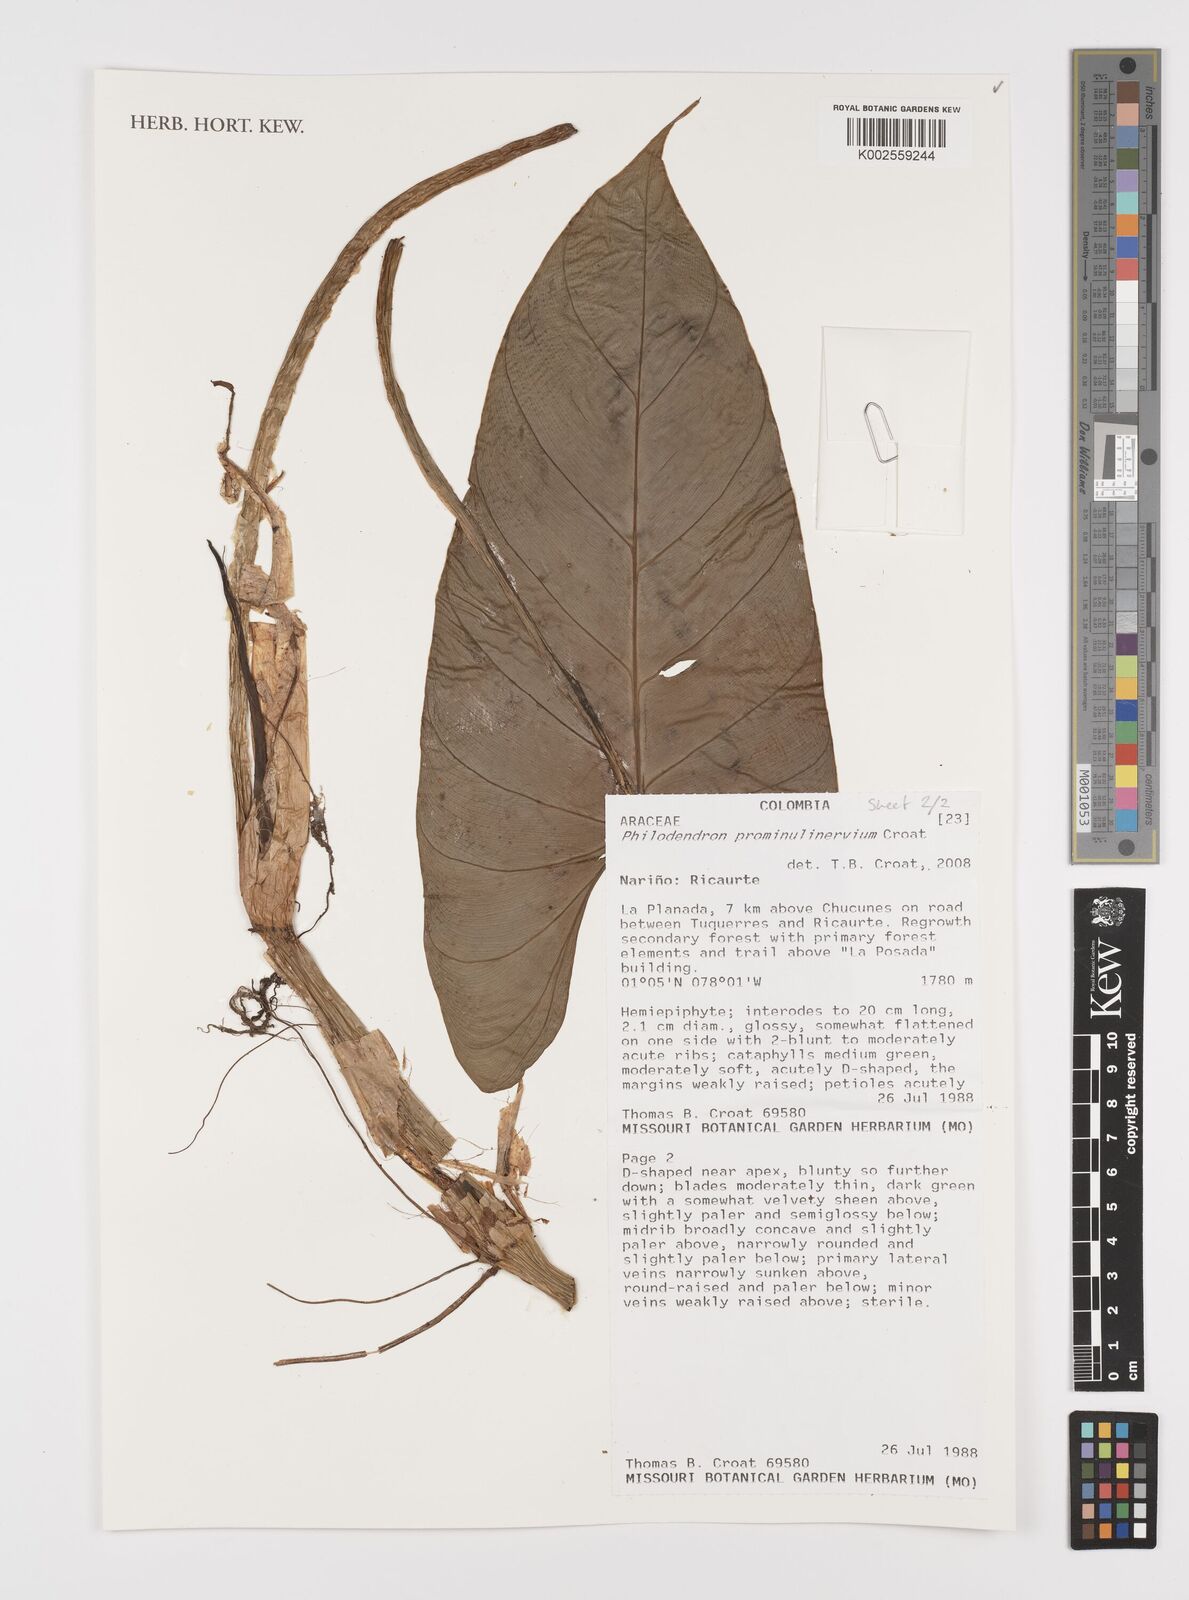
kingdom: Plantae
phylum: Tracheophyta
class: Liliopsida
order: Alismatales
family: Araceae
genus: Philodendron
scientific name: Philodendron prominulinervium
